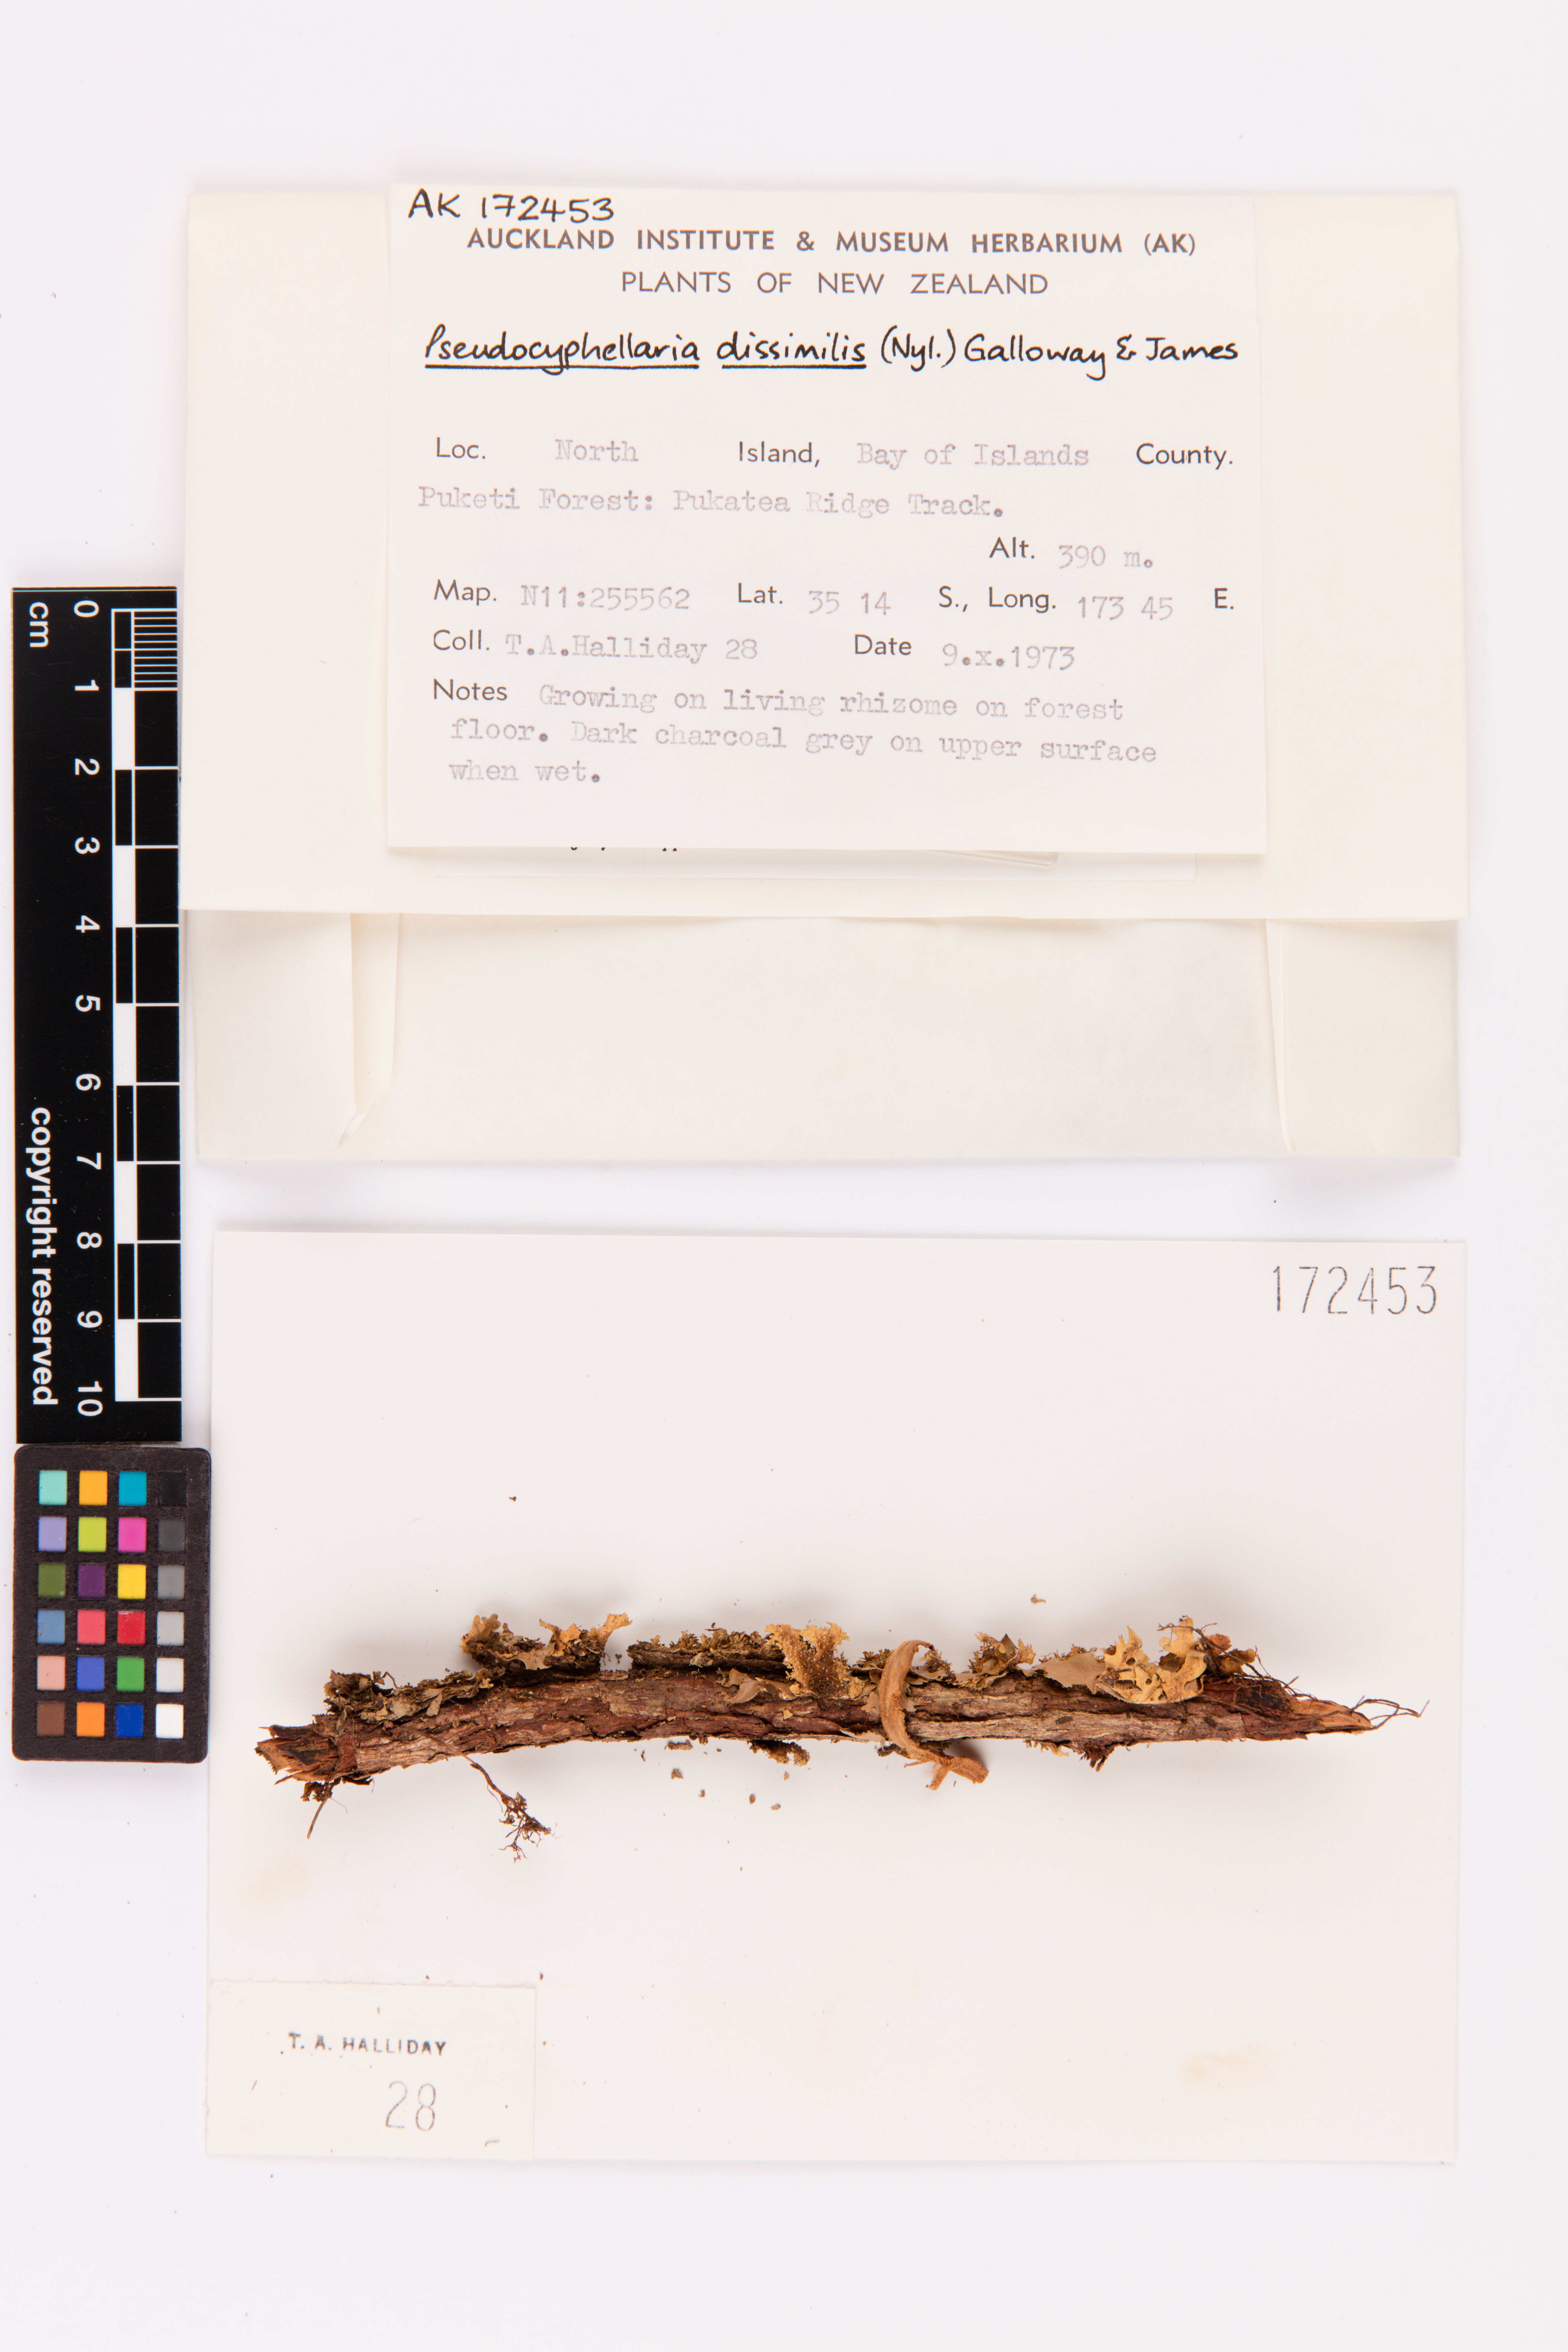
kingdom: Fungi
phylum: Ascomycota
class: Lecanoromycetes
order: Peltigerales
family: Lobariaceae
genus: Pseudocyphellaria
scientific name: Pseudocyphellaria dissimilis
